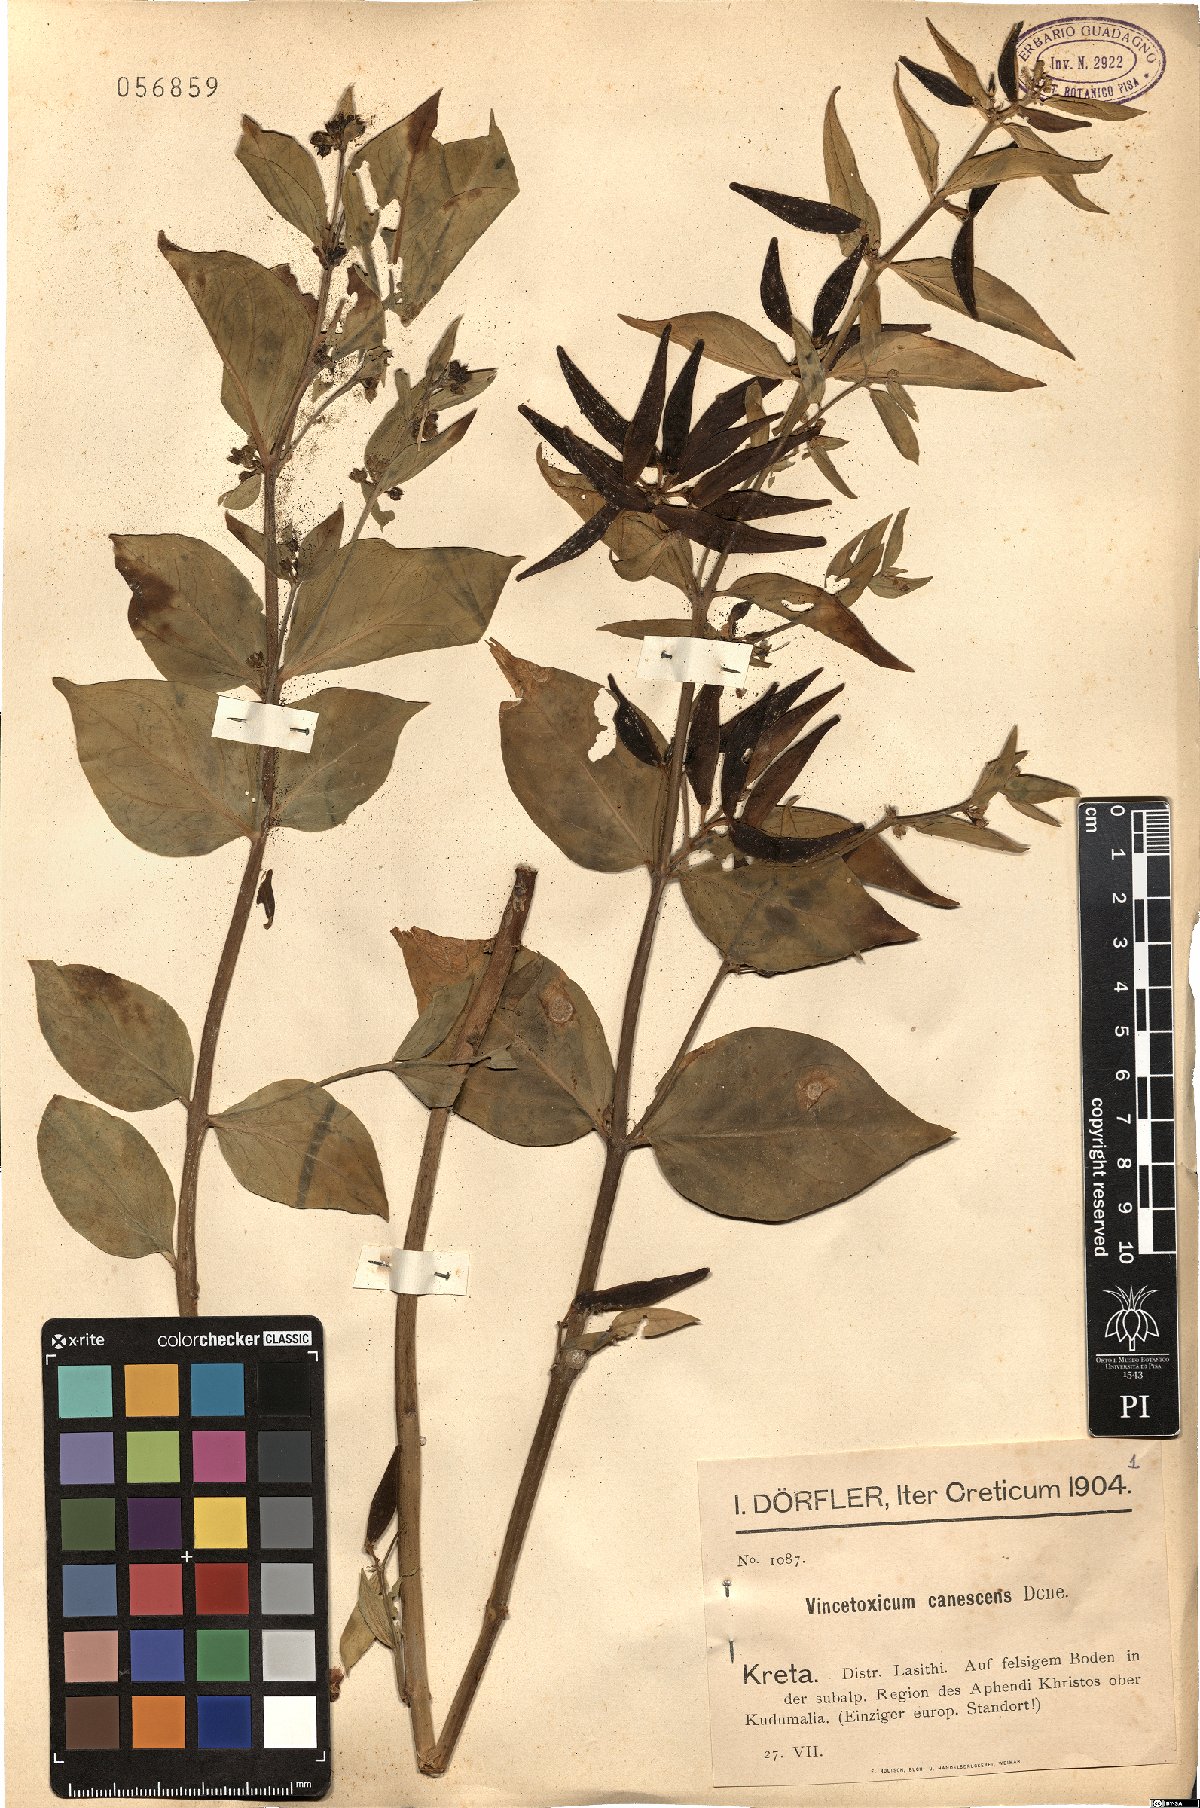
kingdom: Plantae
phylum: Tracheophyta
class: Magnoliopsida
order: Gentianales
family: Apocynaceae
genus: Vincetoxicum
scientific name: Vincetoxicum canescens
